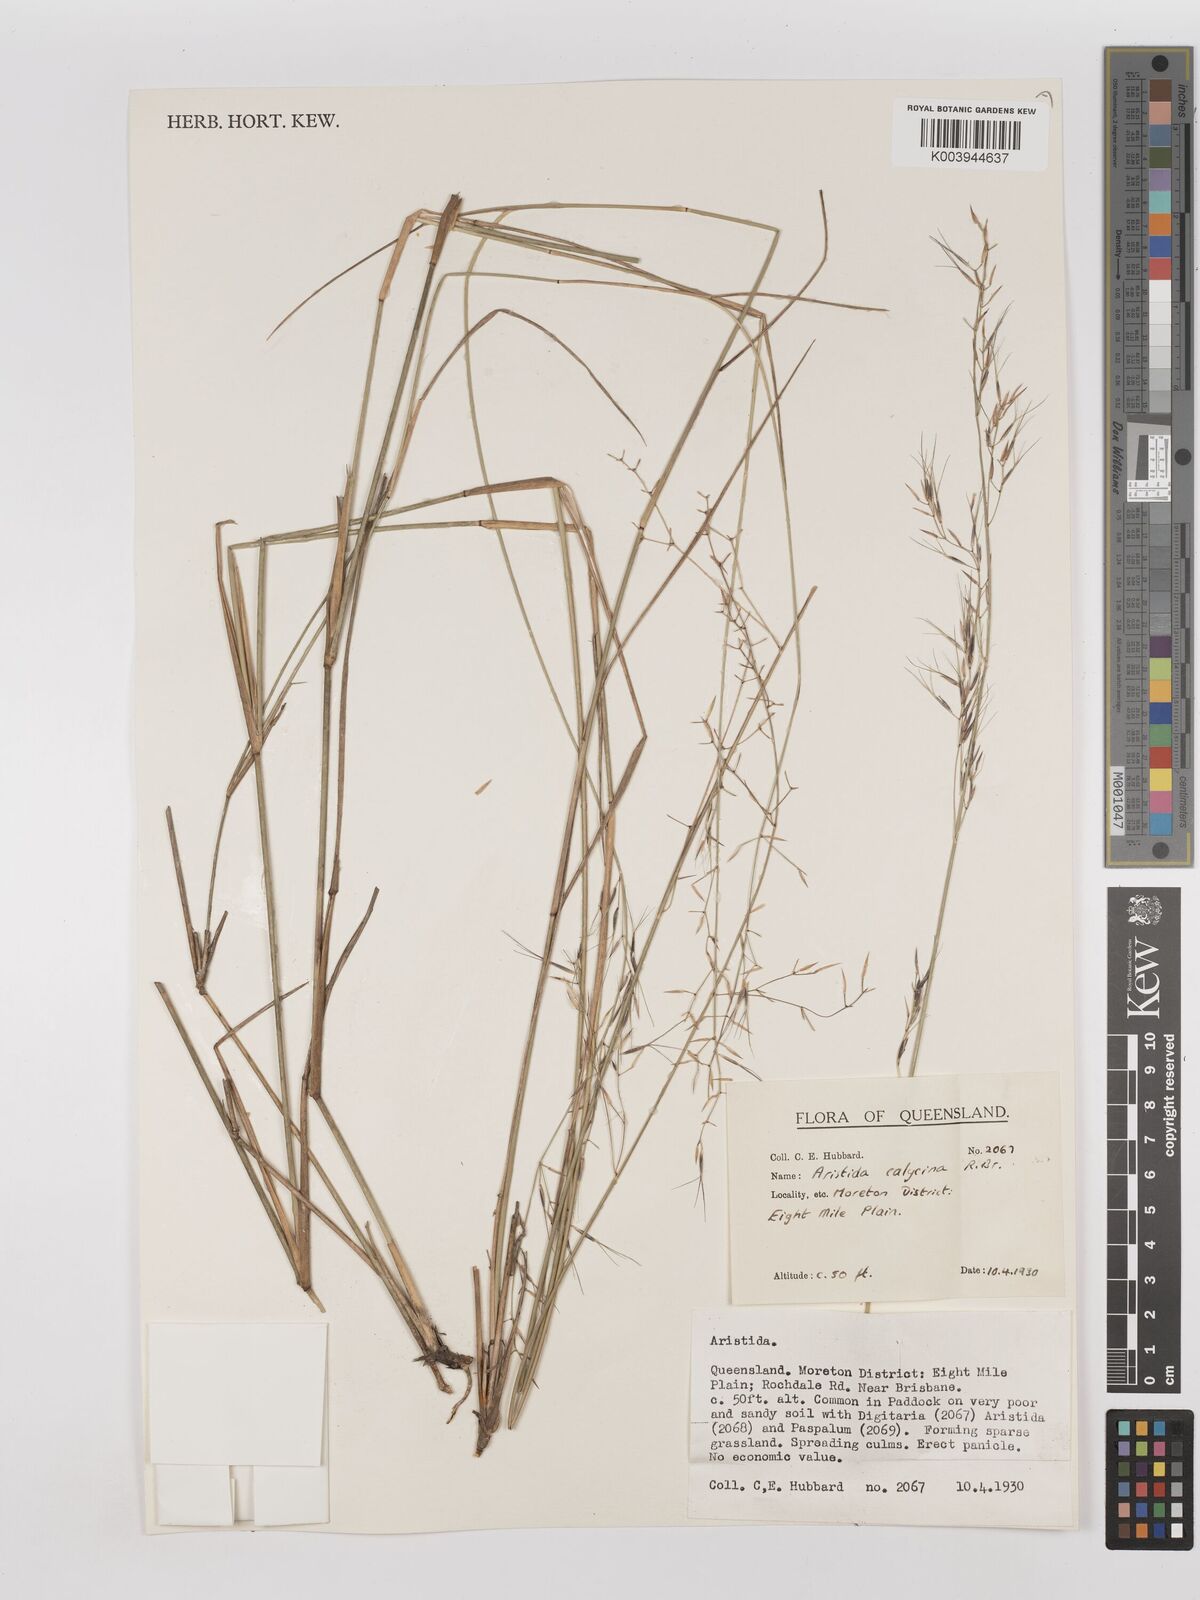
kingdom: Plantae
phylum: Tracheophyta
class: Liliopsida
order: Poales
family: Poaceae
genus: Aristida
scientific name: Aristida calycina
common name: Dark wire grass
